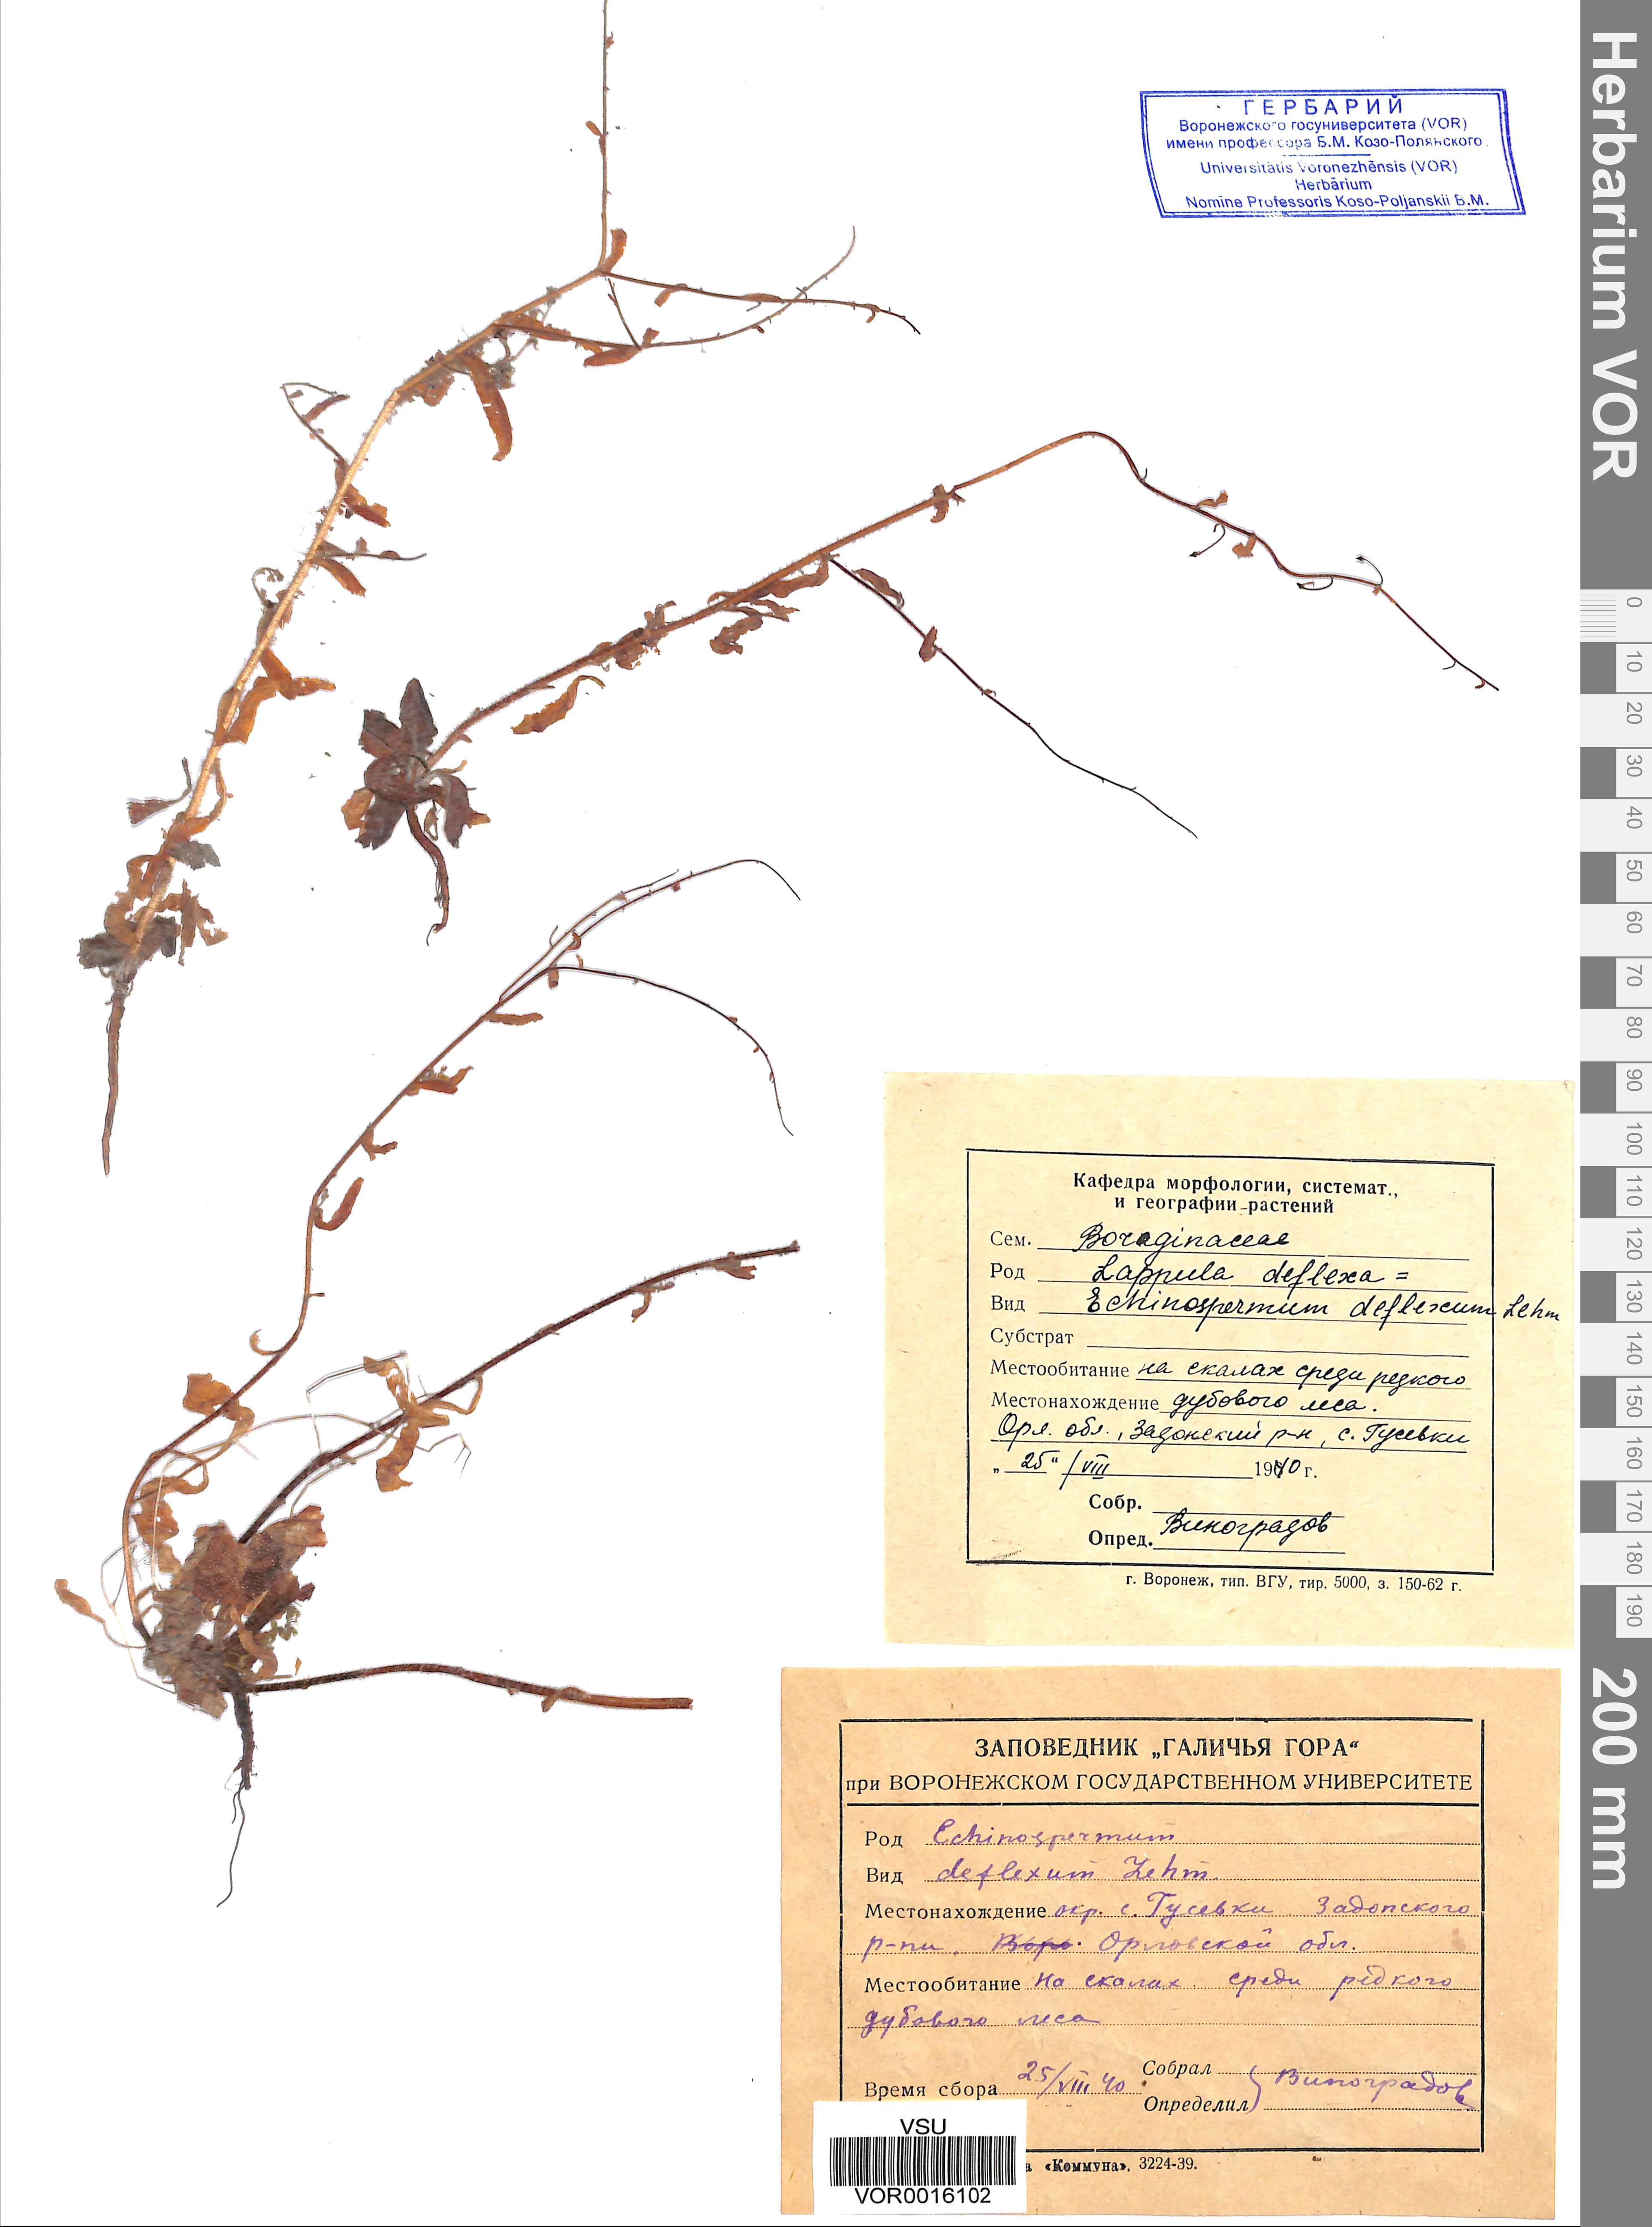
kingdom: Plantae
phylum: Tracheophyta
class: Magnoliopsida
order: Boraginales
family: Boraginaceae
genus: Hackelia
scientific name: Hackelia deflexa
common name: Nodding stickseed
